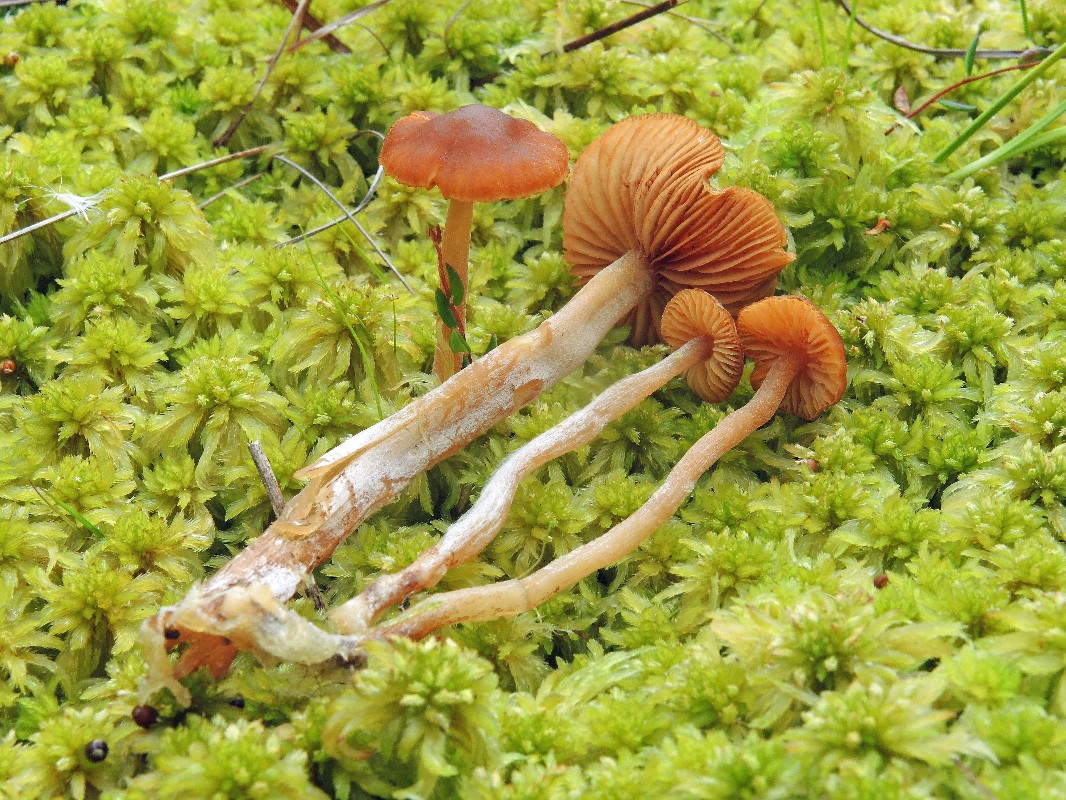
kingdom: Fungi
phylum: Basidiomycota
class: Agaricomycetes
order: Agaricales
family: Hymenogastraceae
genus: Galerina
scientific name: Galerina hybrida
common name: hængesæk-hjelmhat
